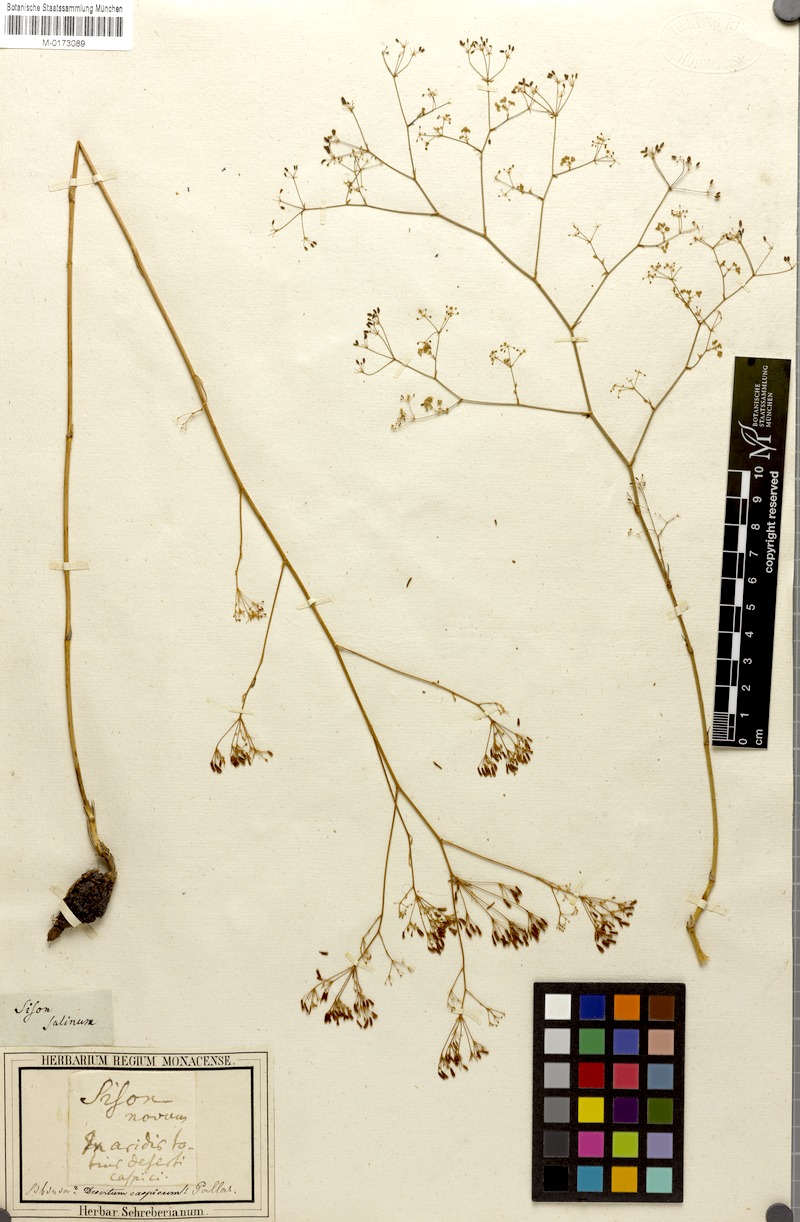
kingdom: Plantae
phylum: Tracheophyta
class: Magnoliopsida
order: Apiales
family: Apiaceae
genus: Palimbia
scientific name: Palimbia rediviva
